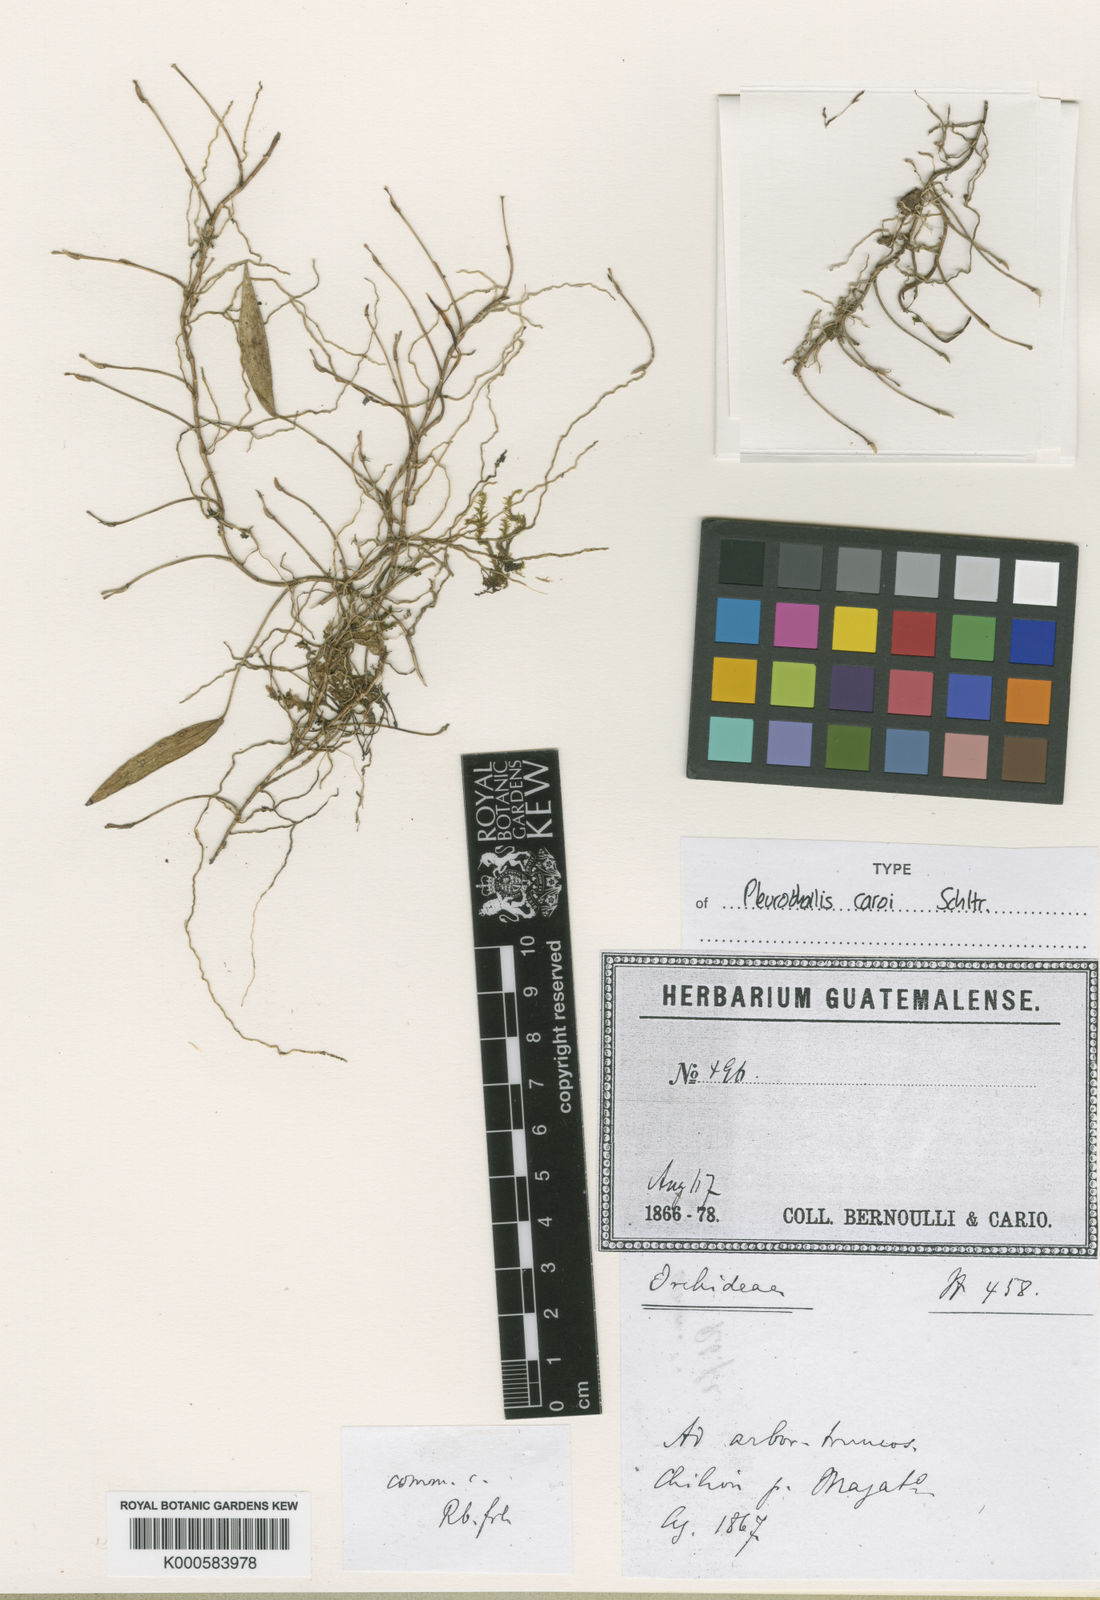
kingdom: Plantae
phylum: Tracheophyta
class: Liliopsida
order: Asparagales
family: Orchidaceae
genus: Acianthera
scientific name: Acianthera angustifolia
